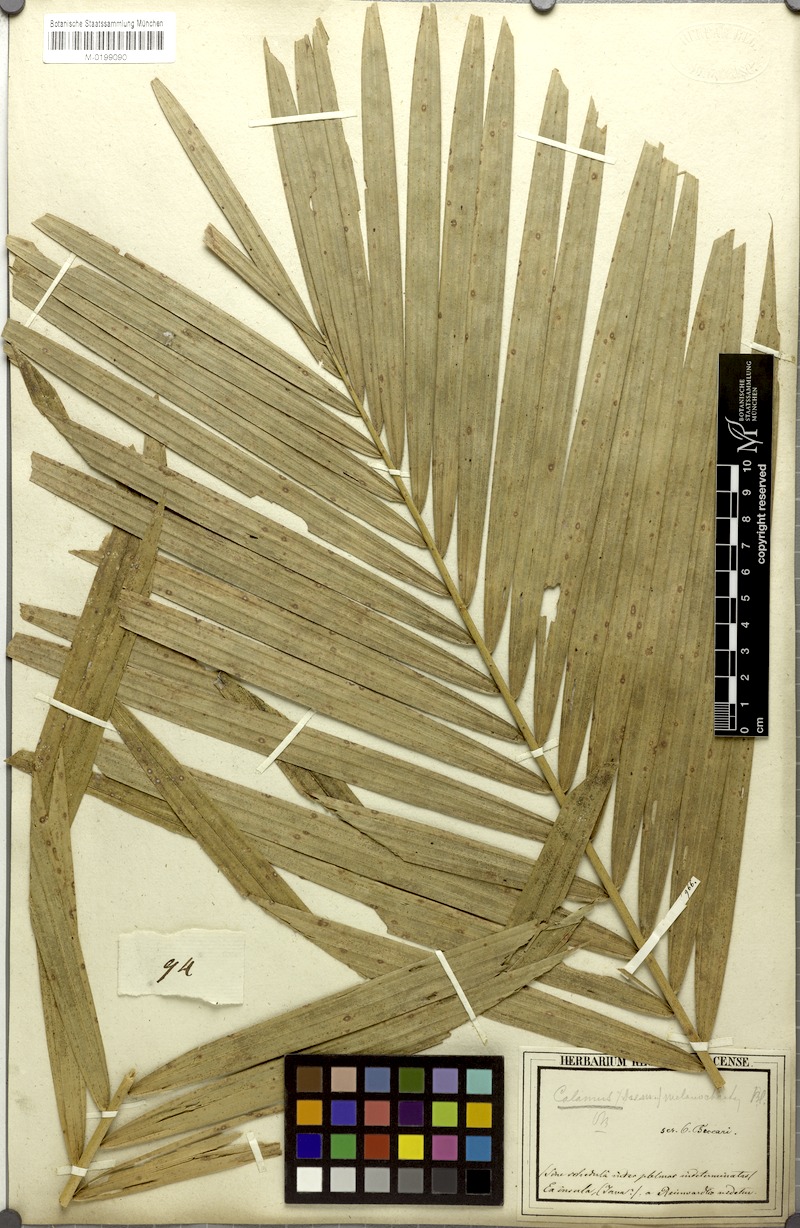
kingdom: Plantae
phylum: Tracheophyta
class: Liliopsida
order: Arecales
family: Arecaceae
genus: Calamus
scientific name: Calamus melanochaetes
